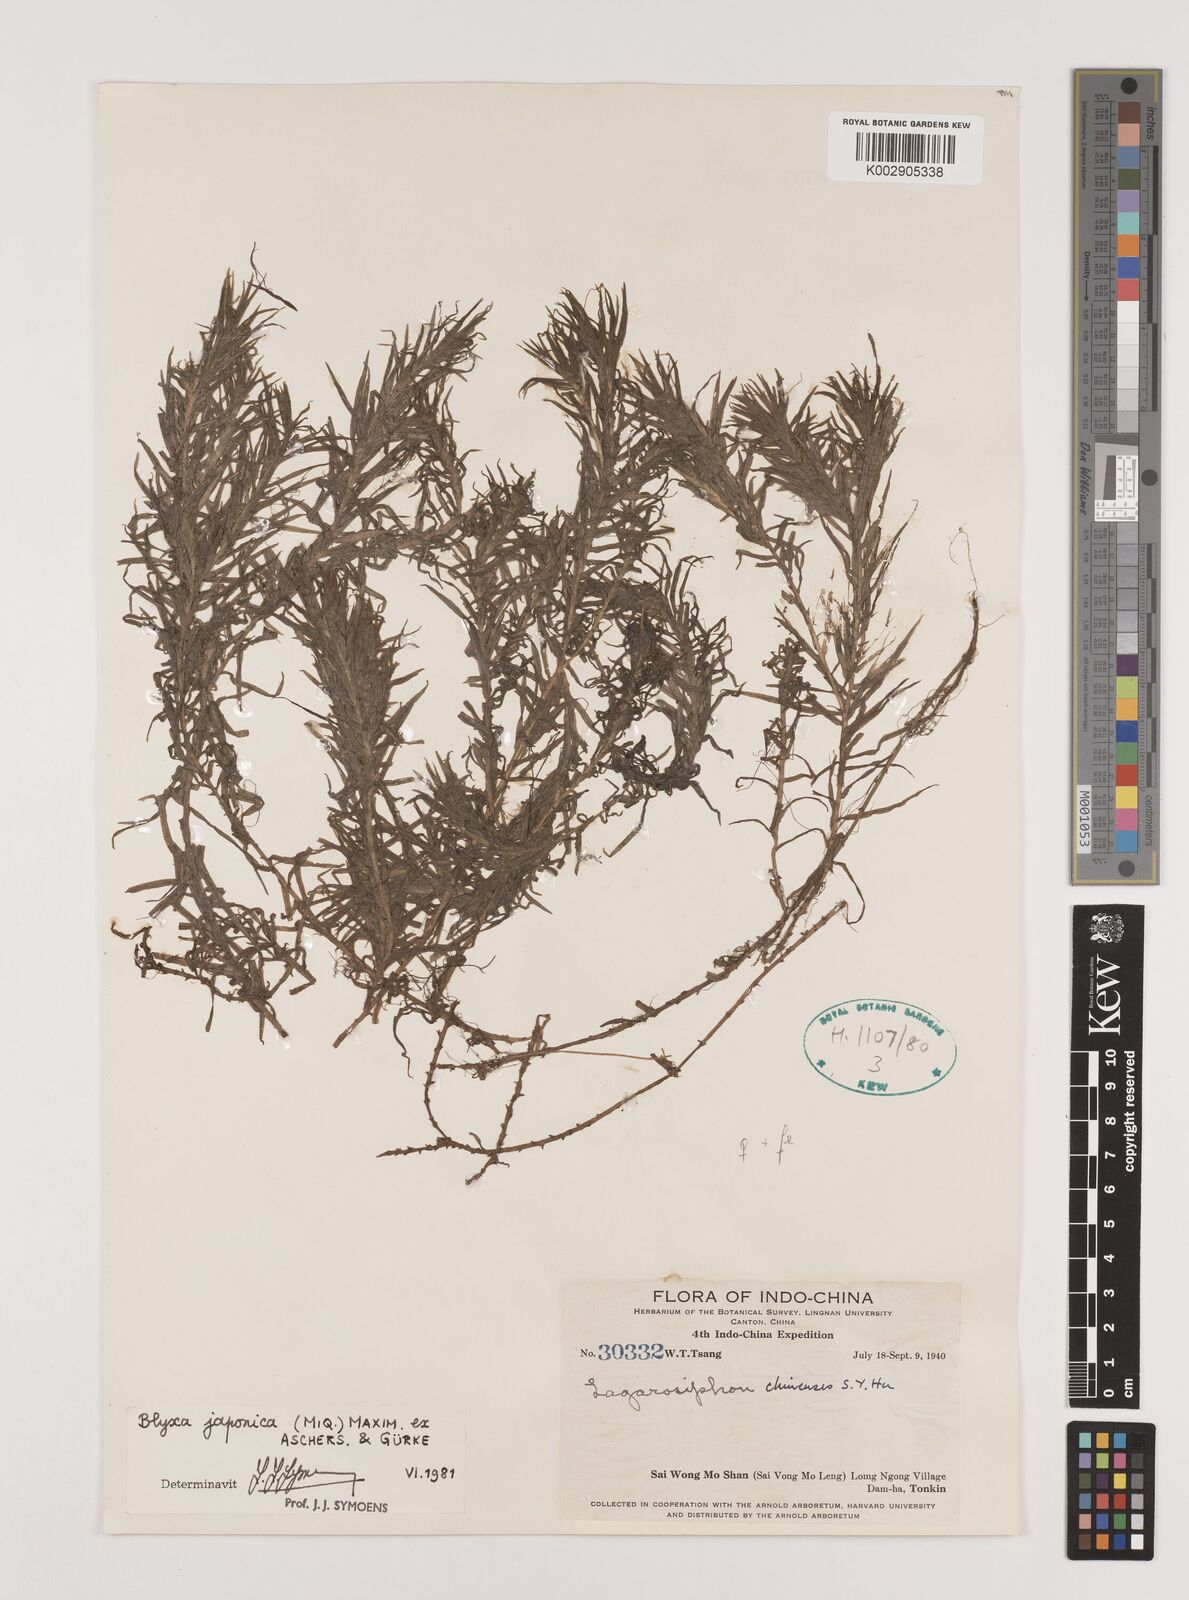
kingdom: Plantae
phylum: Tracheophyta
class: Liliopsida
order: Alismatales
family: Hydrocharitaceae
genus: Blyxa
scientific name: Blyxa japonica
